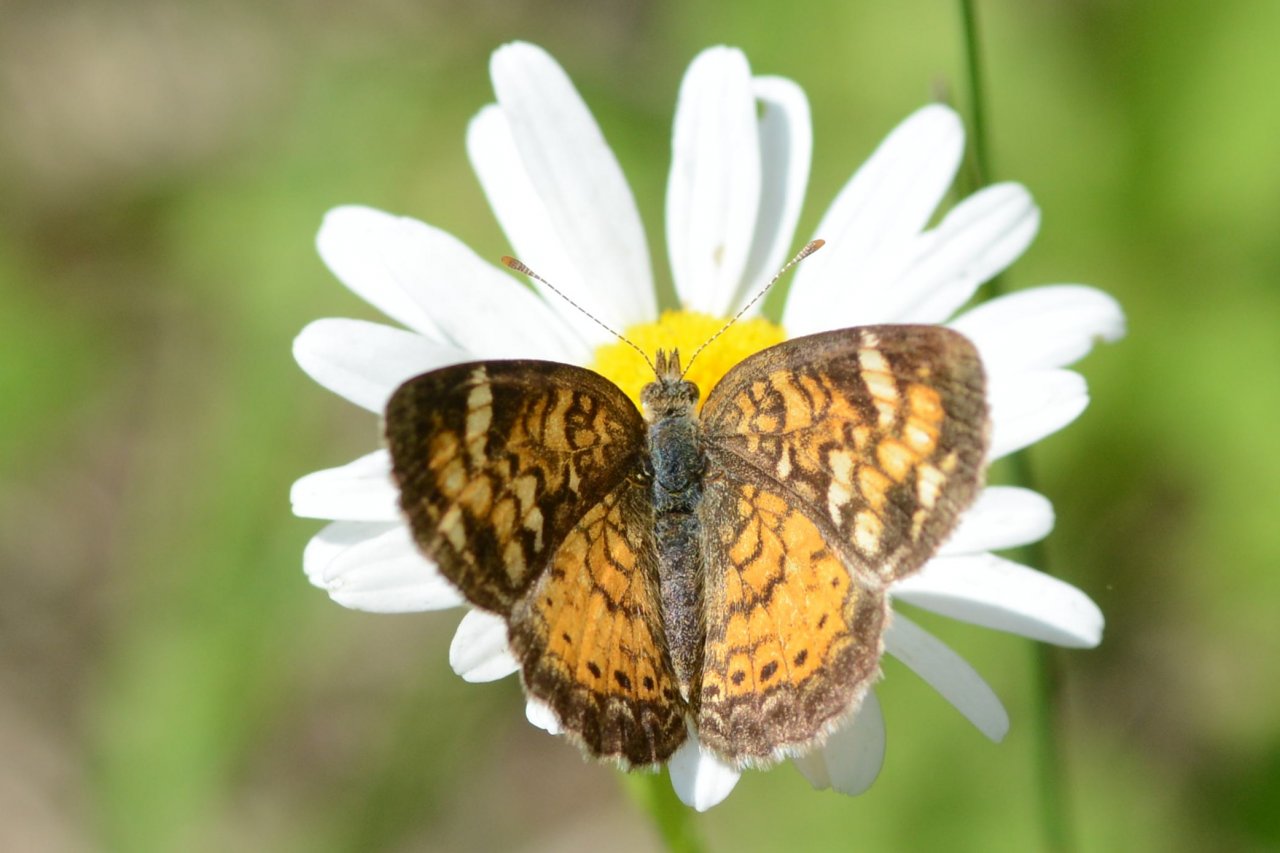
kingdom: Animalia
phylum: Arthropoda
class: Insecta
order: Lepidoptera
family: Nymphalidae
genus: Phyciodes
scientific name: Phyciodes tharos
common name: Northern Crescent
